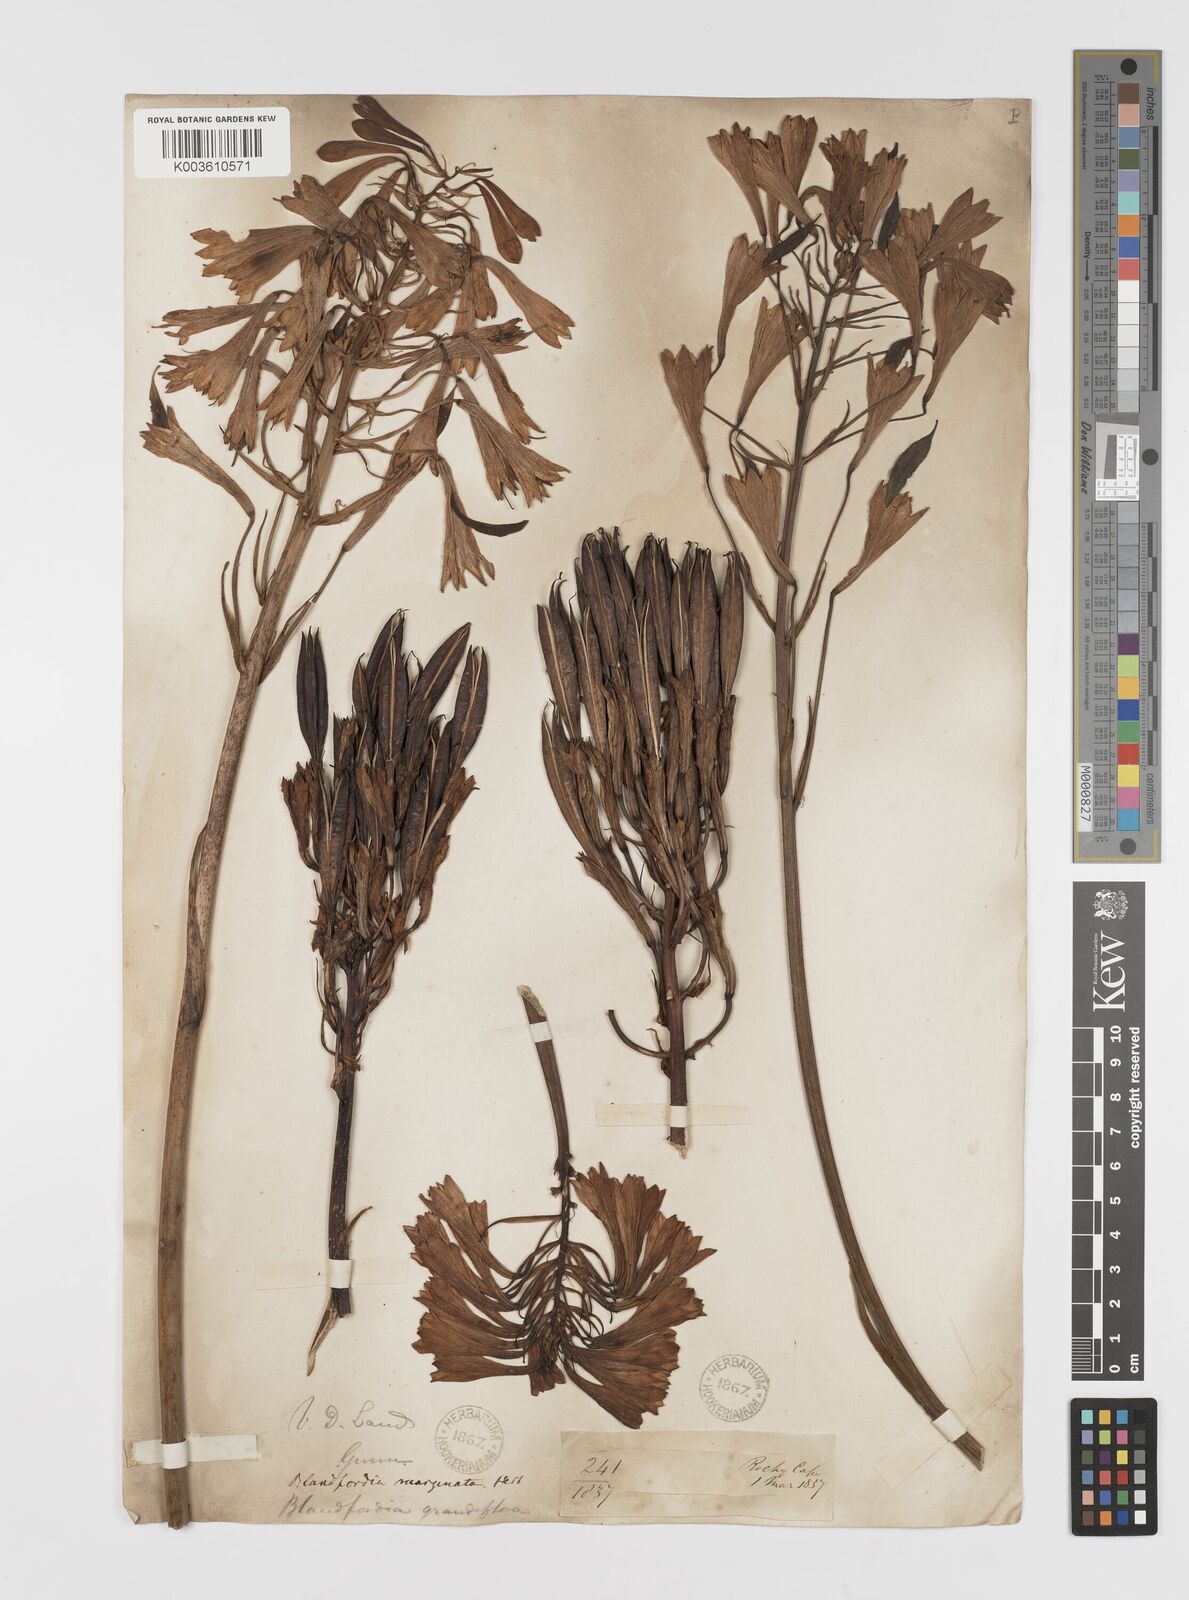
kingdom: Plantae
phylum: Tracheophyta
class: Liliopsida
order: Asparagales
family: Blandfordiaceae
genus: Blandfordia
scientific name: Blandfordia punicea
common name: Tasmanian christmas-bell
